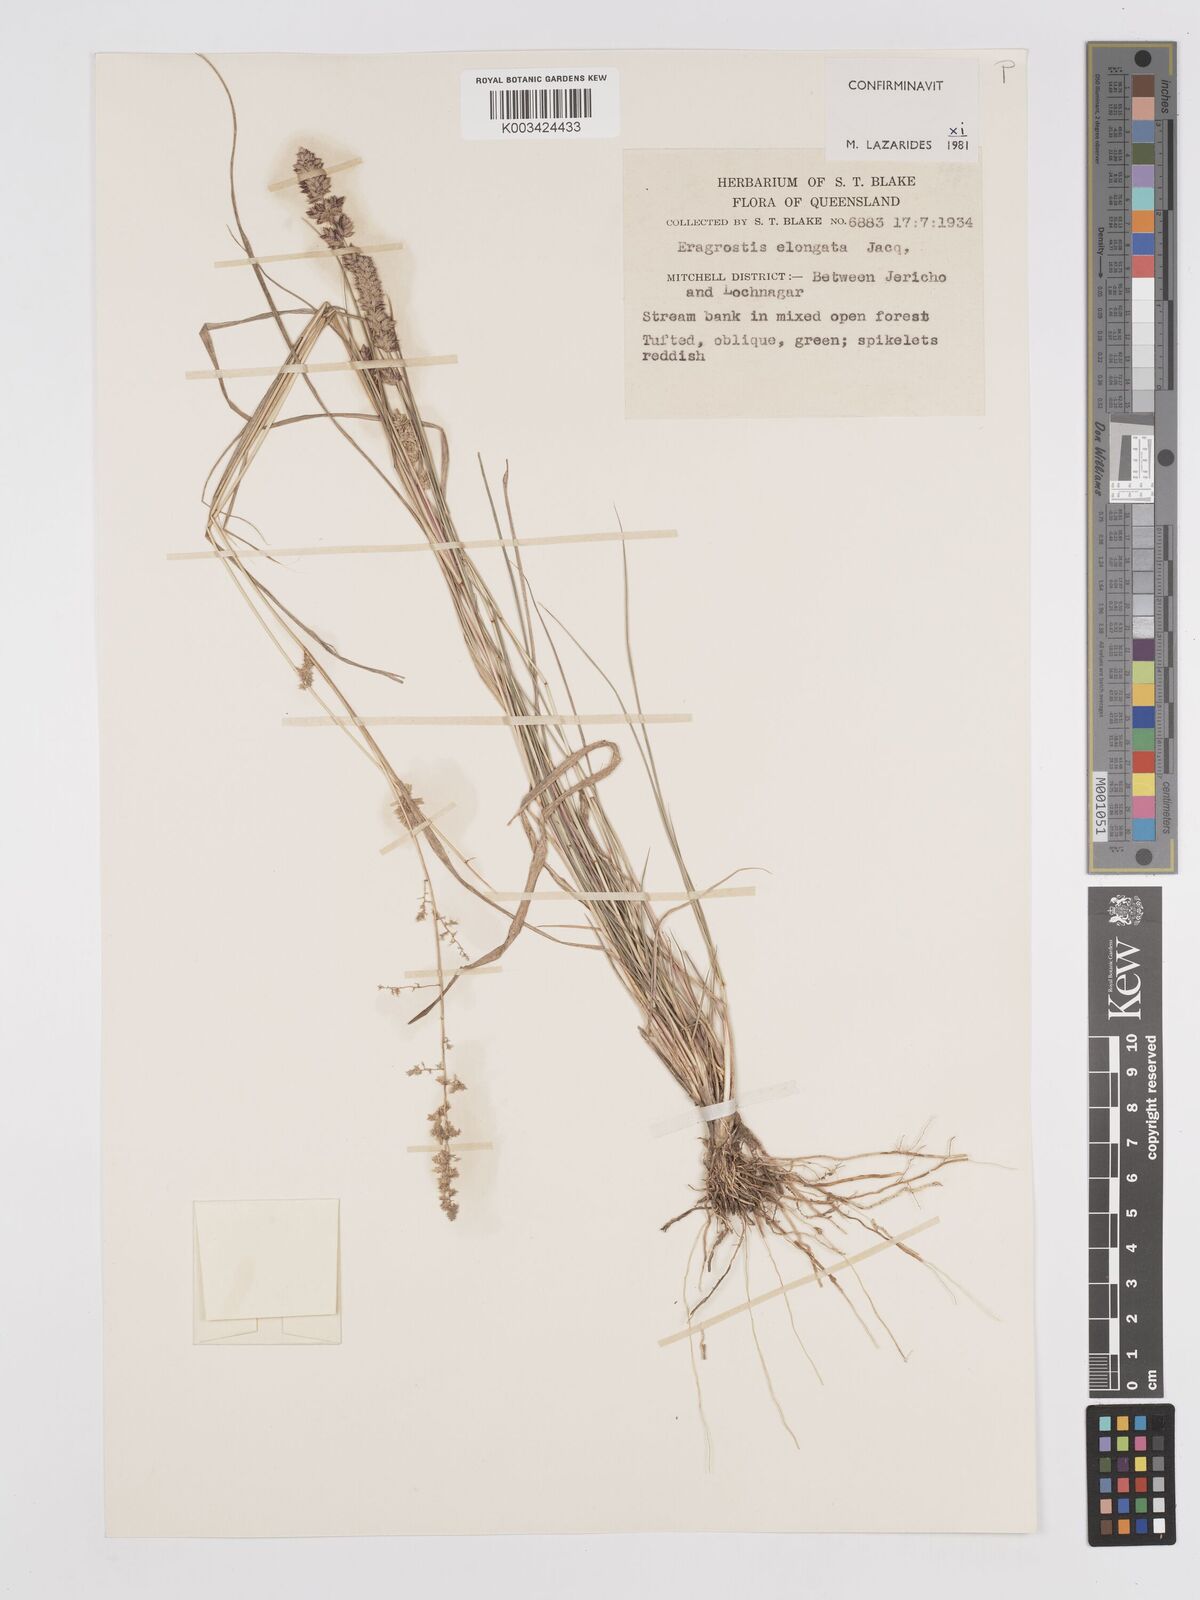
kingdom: Plantae
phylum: Tracheophyta
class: Liliopsida
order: Poales
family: Poaceae
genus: Eragrostis
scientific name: Eragrostis elongata
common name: Long lovegrass
